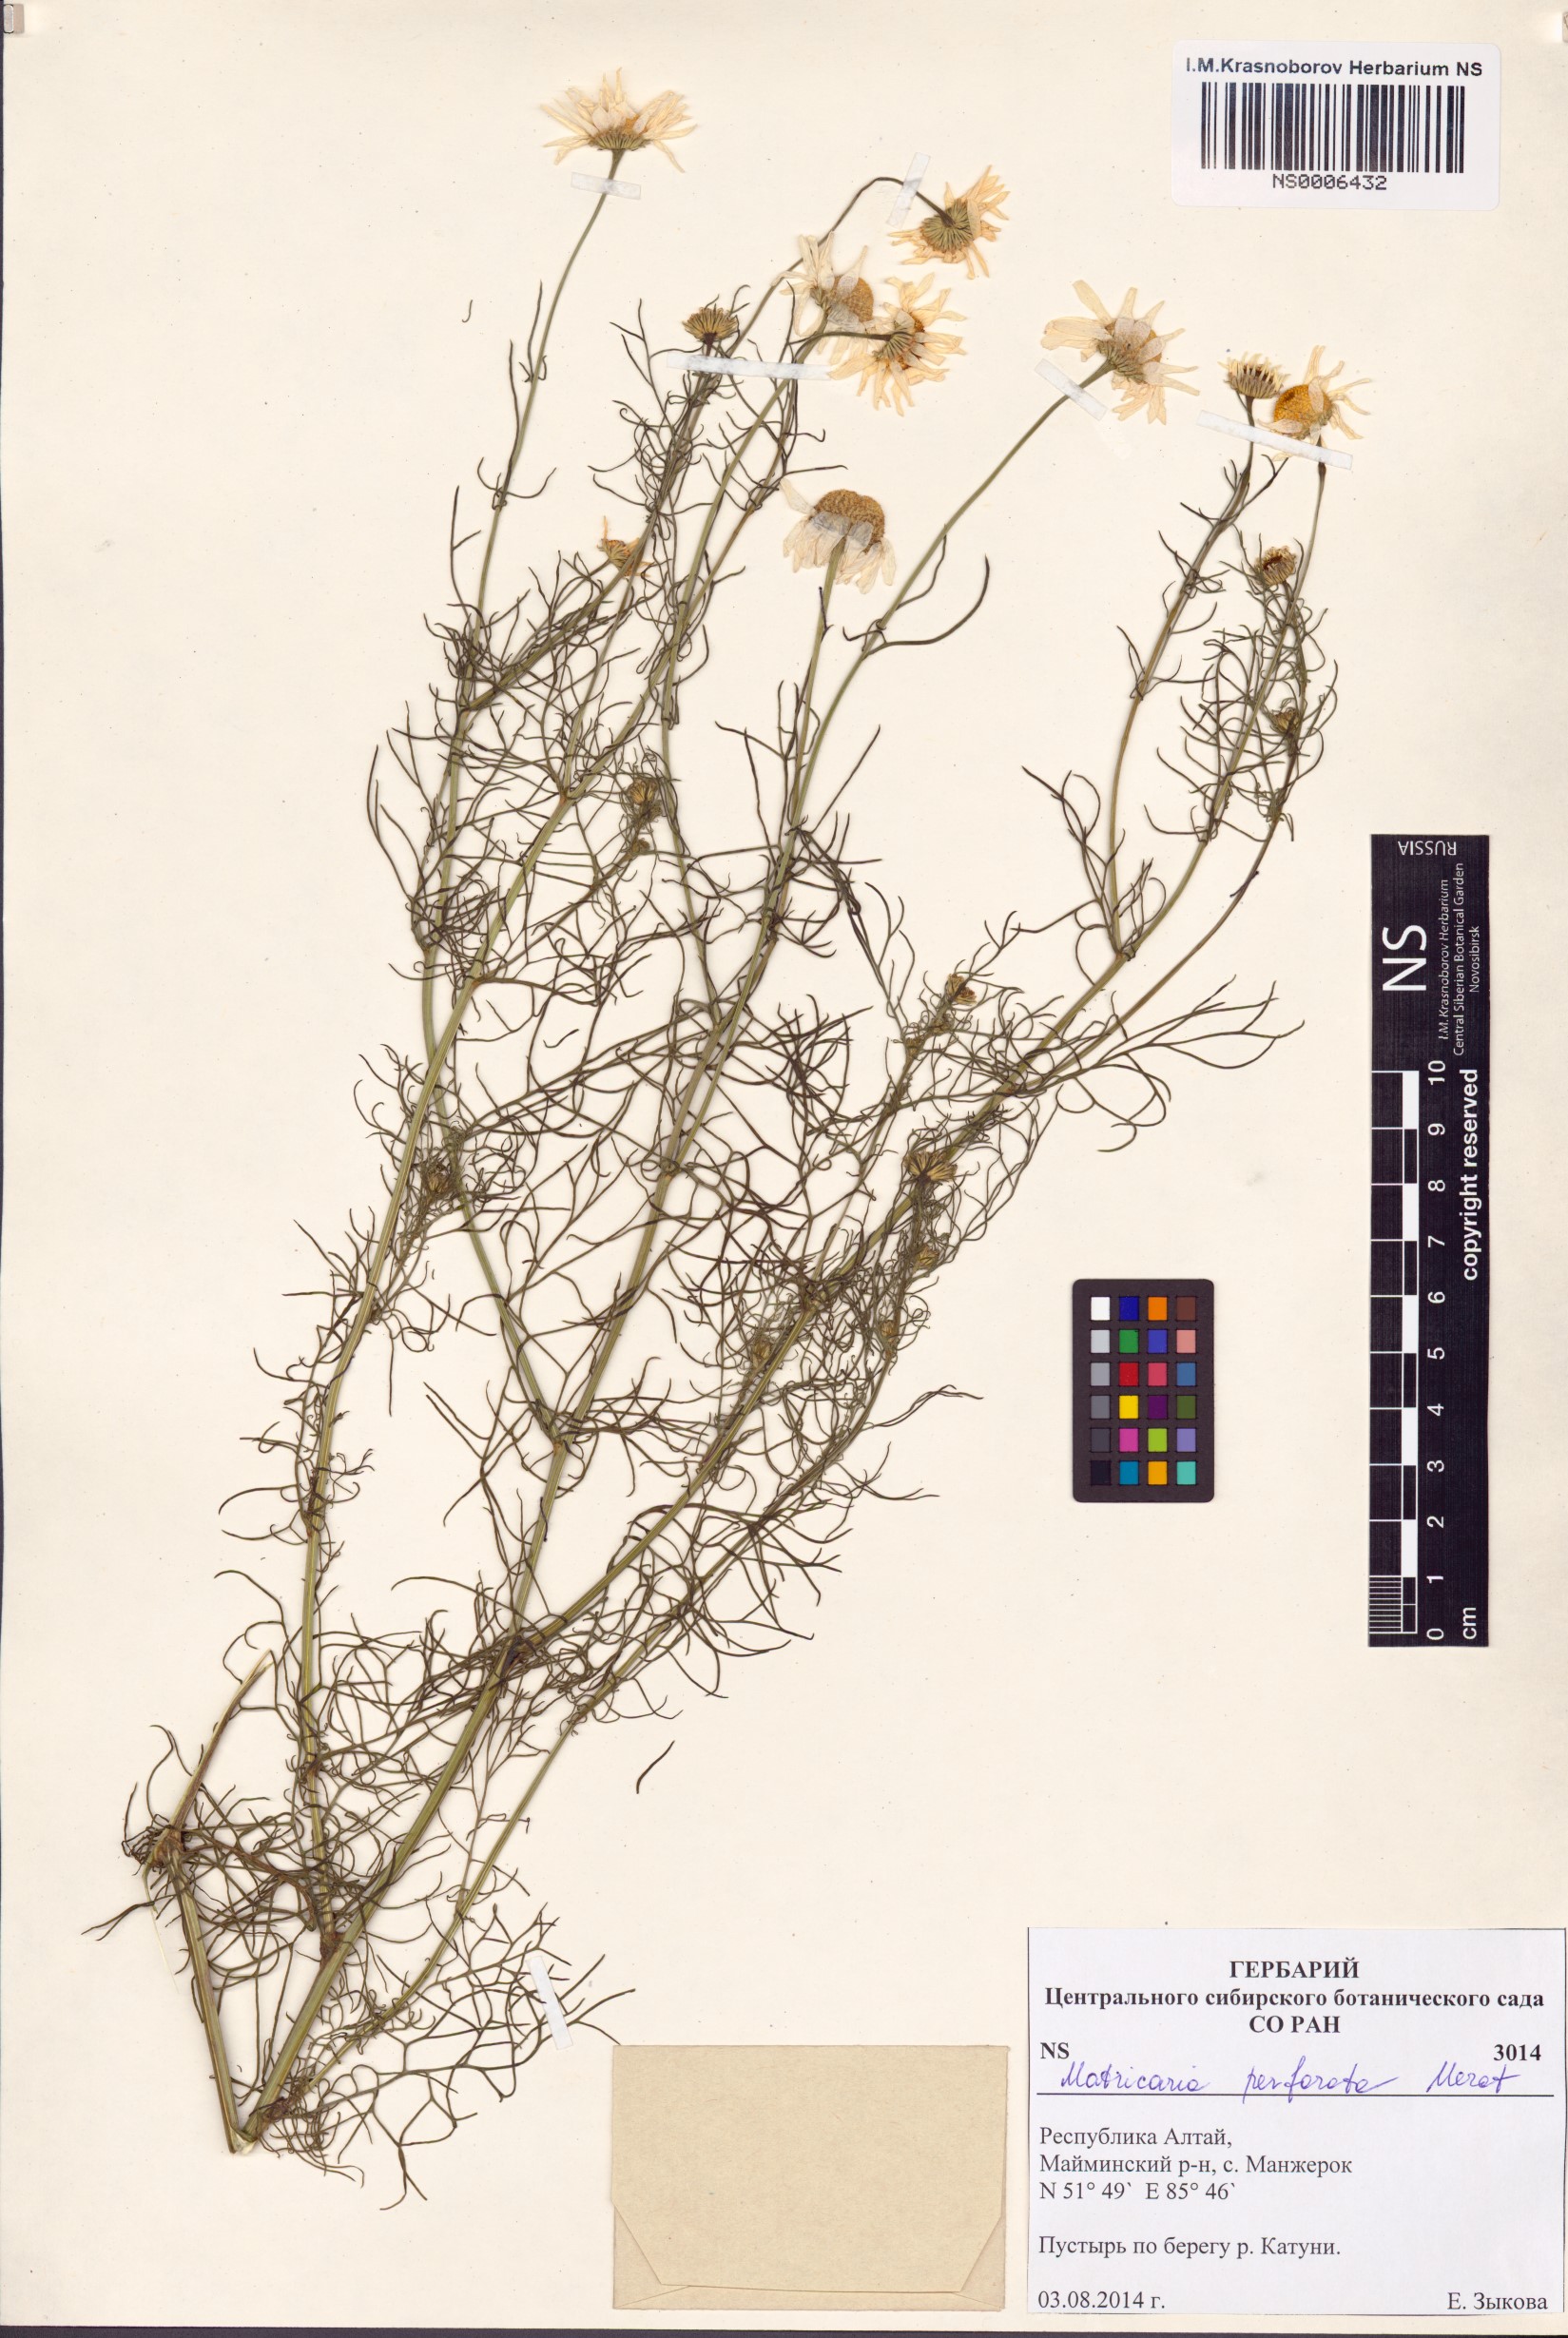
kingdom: Plantae
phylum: Tracheophyta
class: Magnoliopsida
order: Asterales
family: Asteraceae
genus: Tripleurospermum
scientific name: Tripleurospermum inodorum
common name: Scentless mayweed
